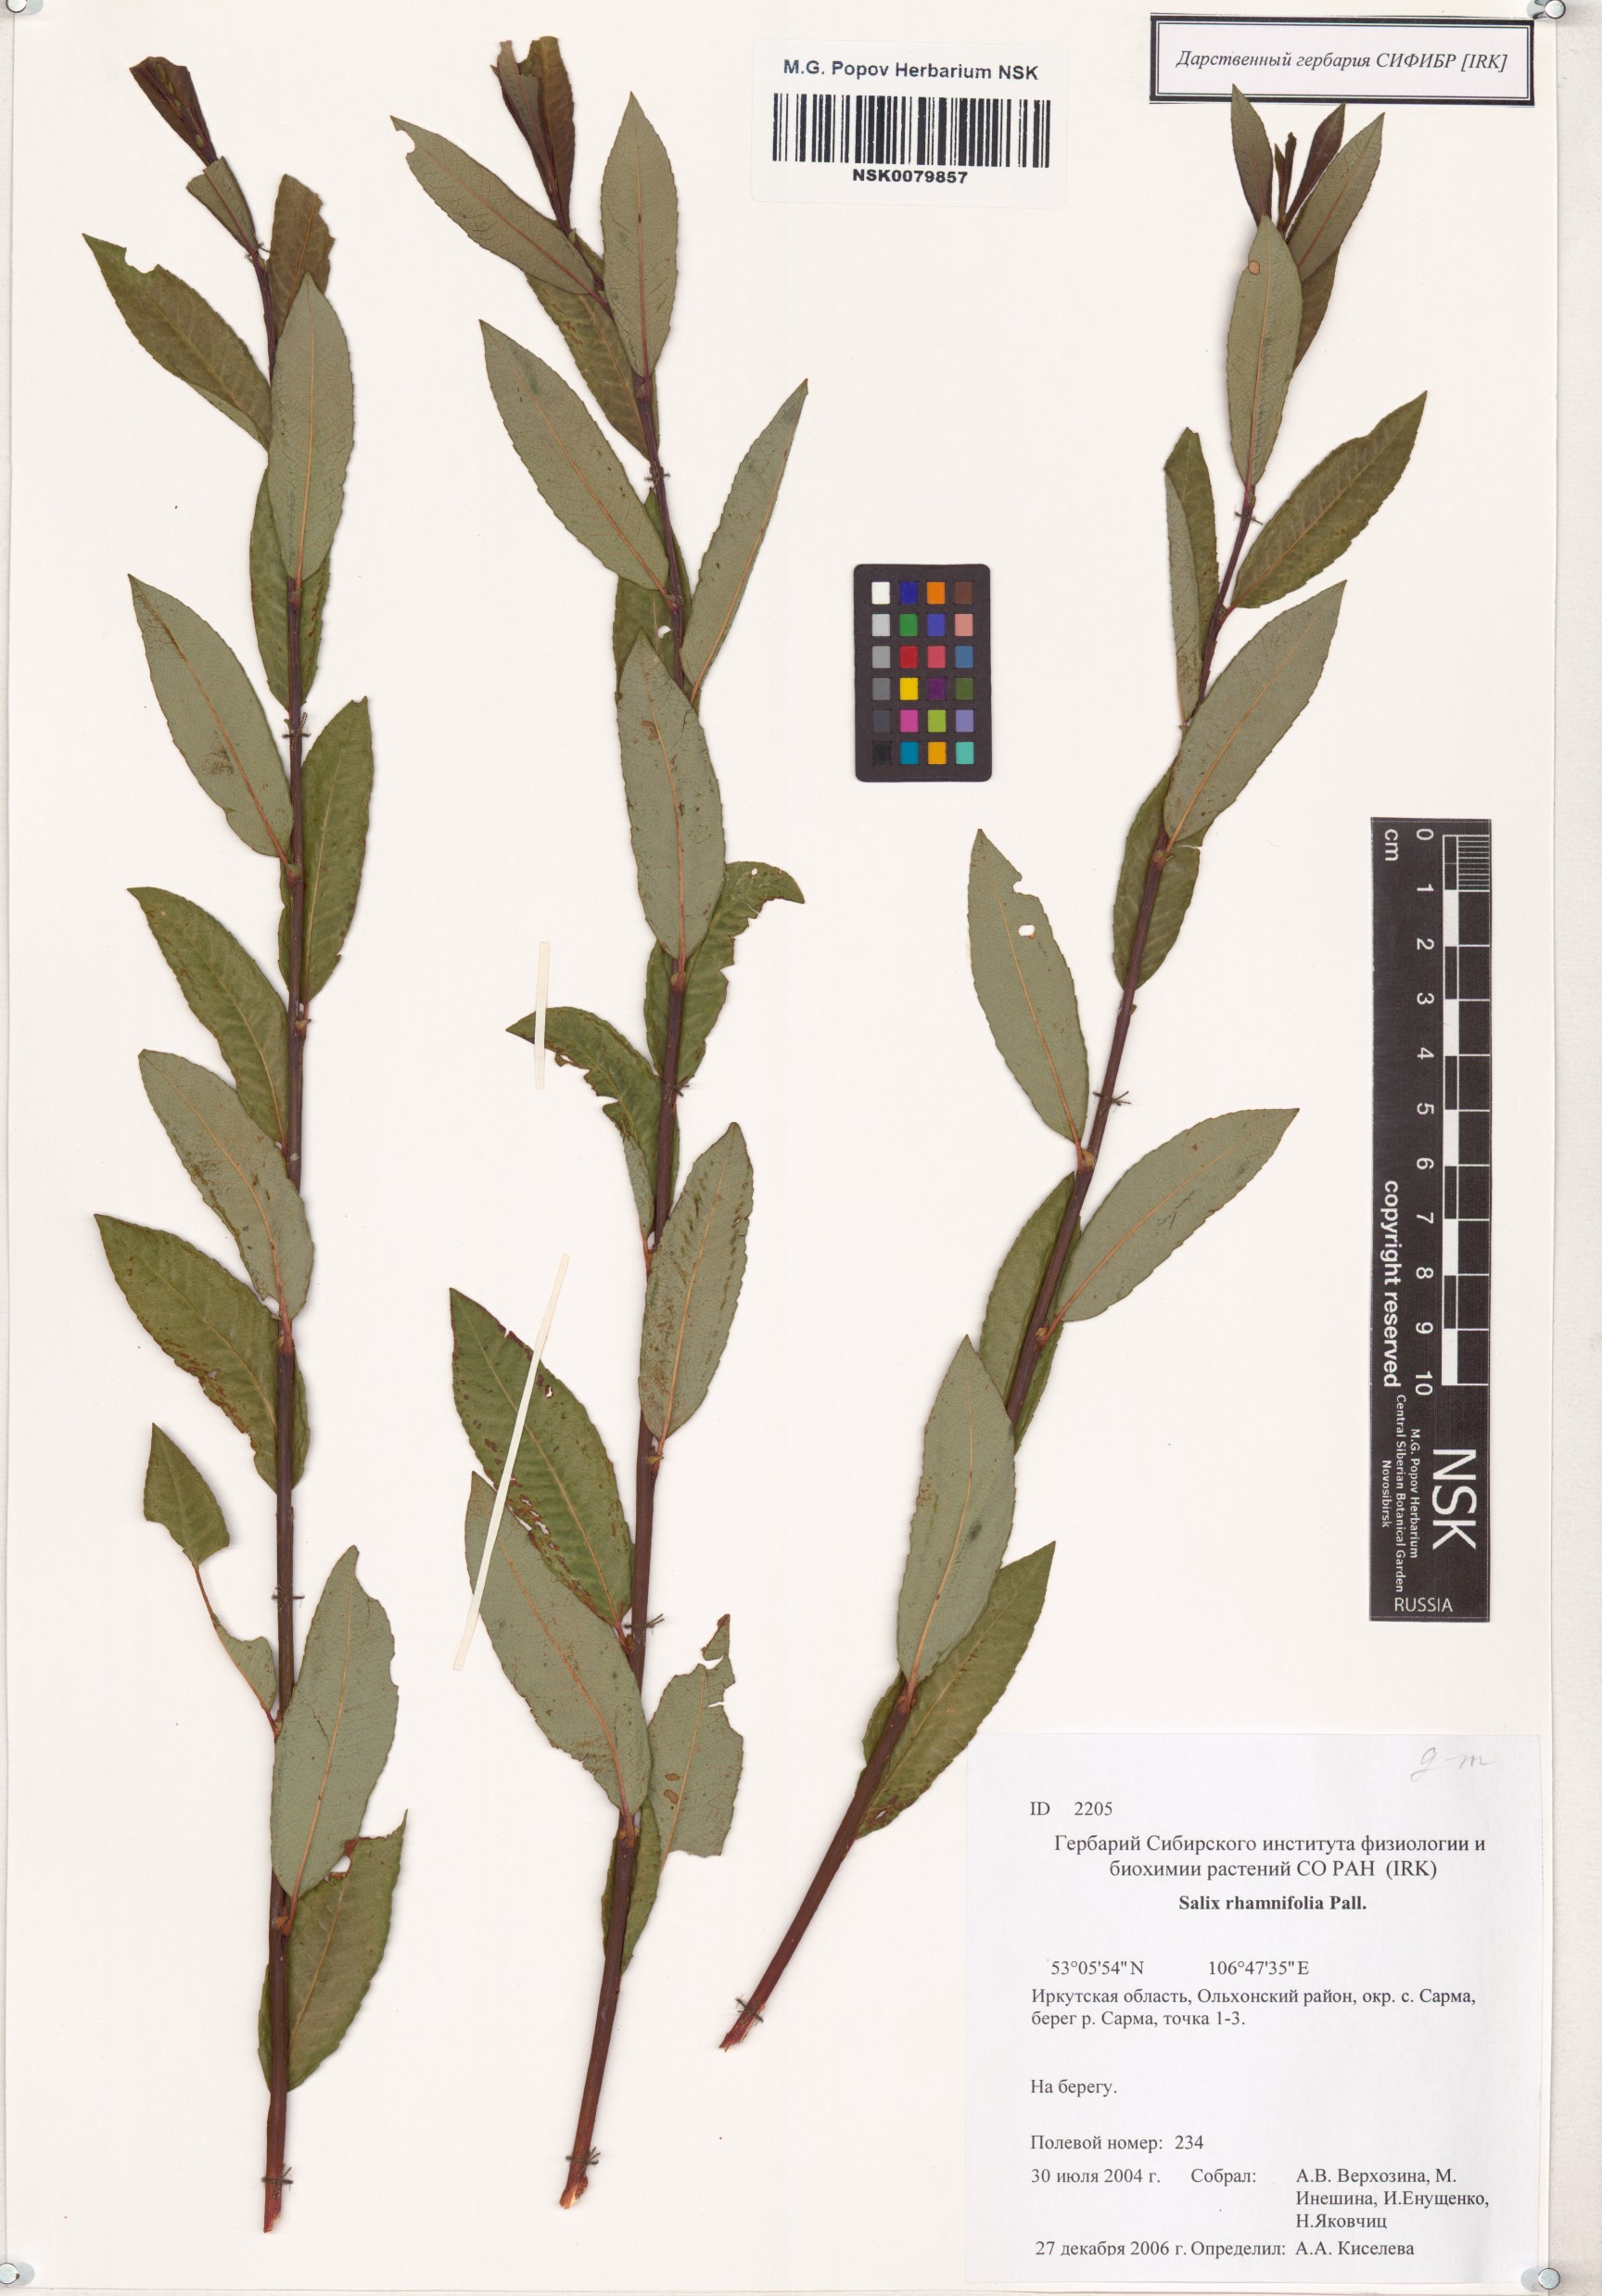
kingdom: Plantae
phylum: Tracheophyta
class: Magnoliopsida
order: Malpighiales
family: Salicaceae
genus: Salix
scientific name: Salix rhamnifolia
